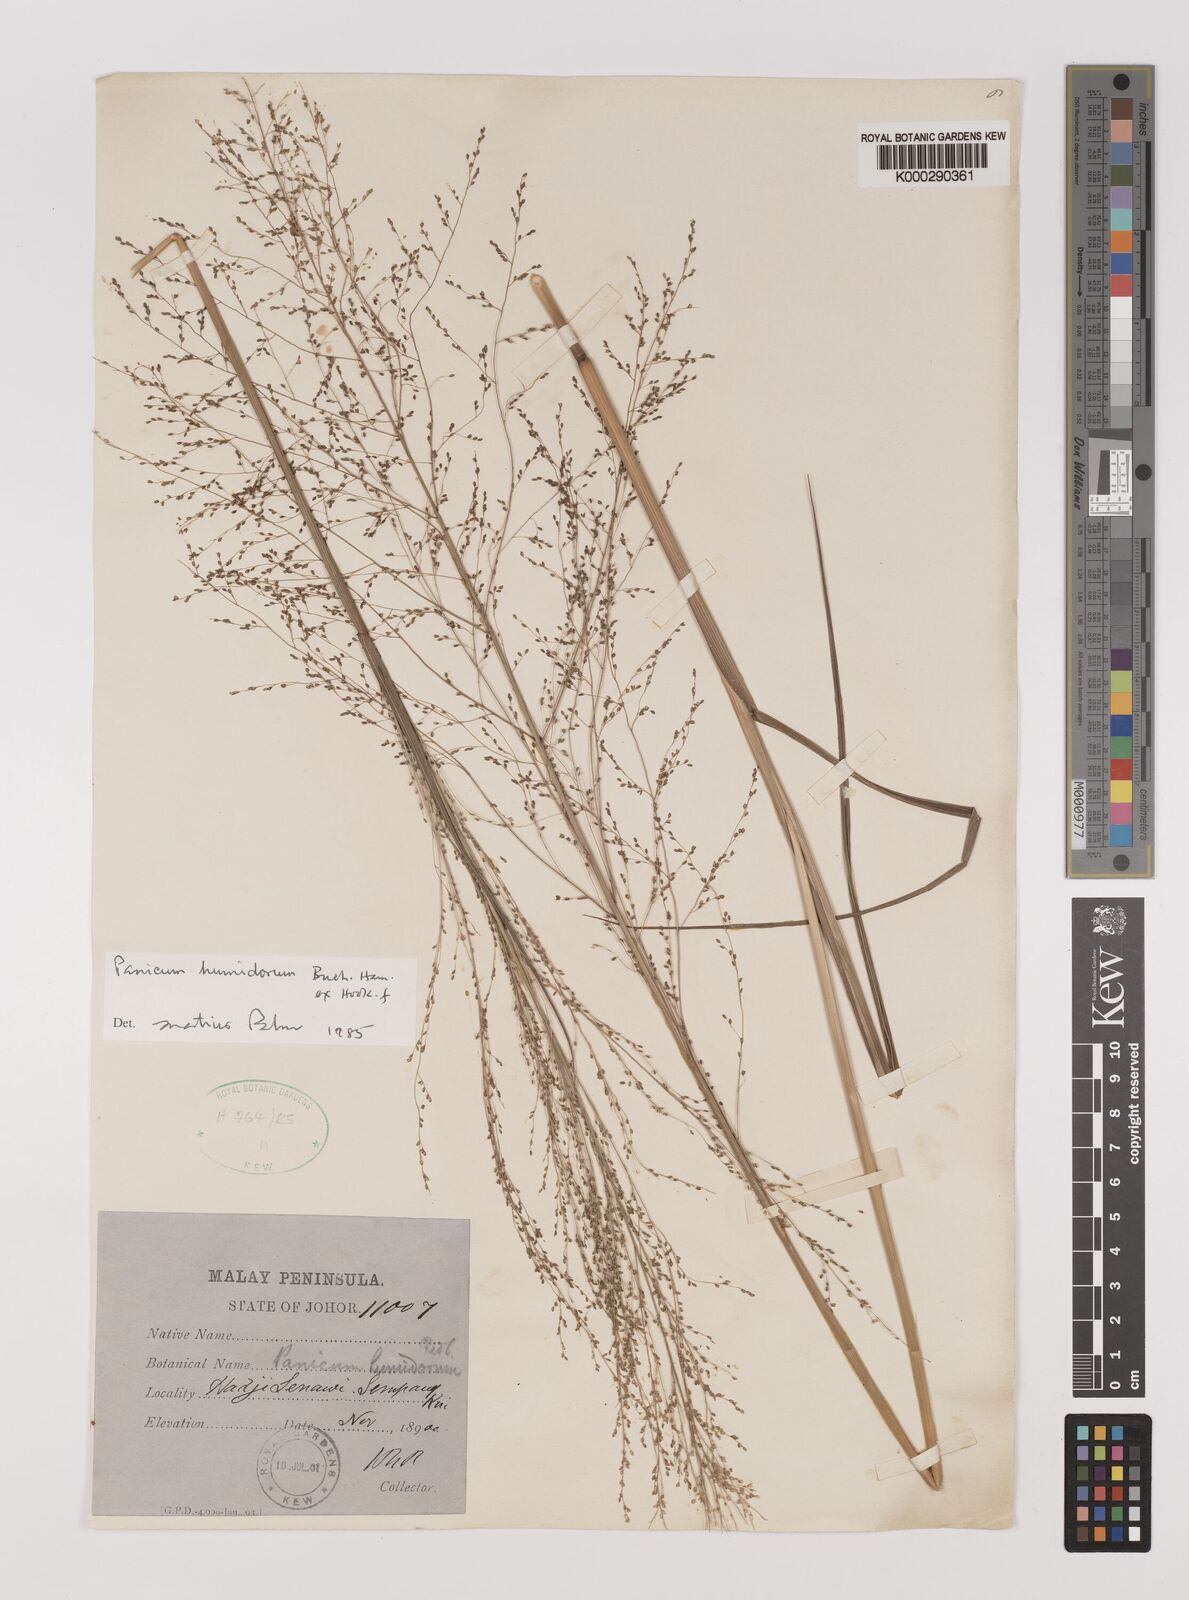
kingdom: Plantae
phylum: Tracheophyta
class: Liliopsida
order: Poales
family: Poaceae
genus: Panicum
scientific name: Panicum humidorum
